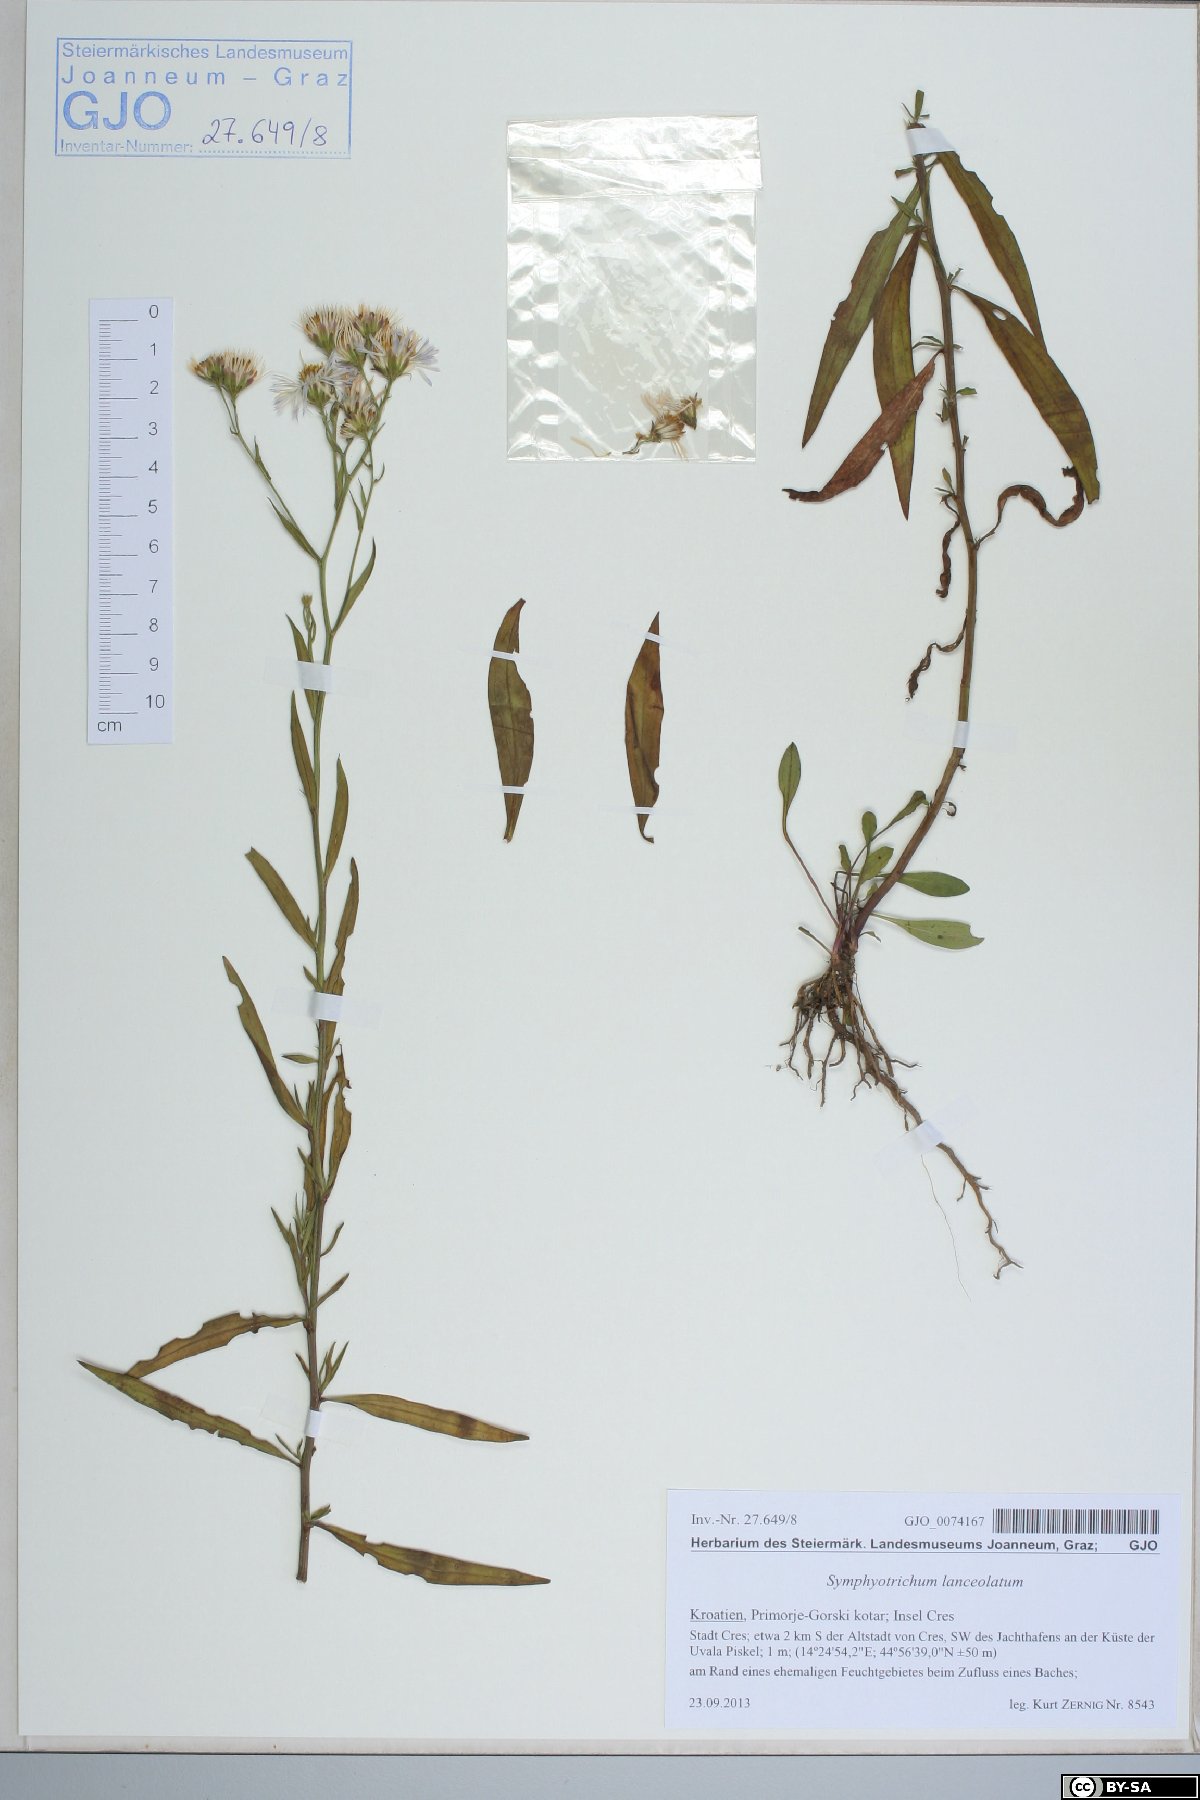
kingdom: Plantae
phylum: Tracheophyta
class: Magnoliopsida
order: Asterales
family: Asteraceae
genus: Symphyotrichum
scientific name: Symphyotrichum lanceolatum
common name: Panicled aster
